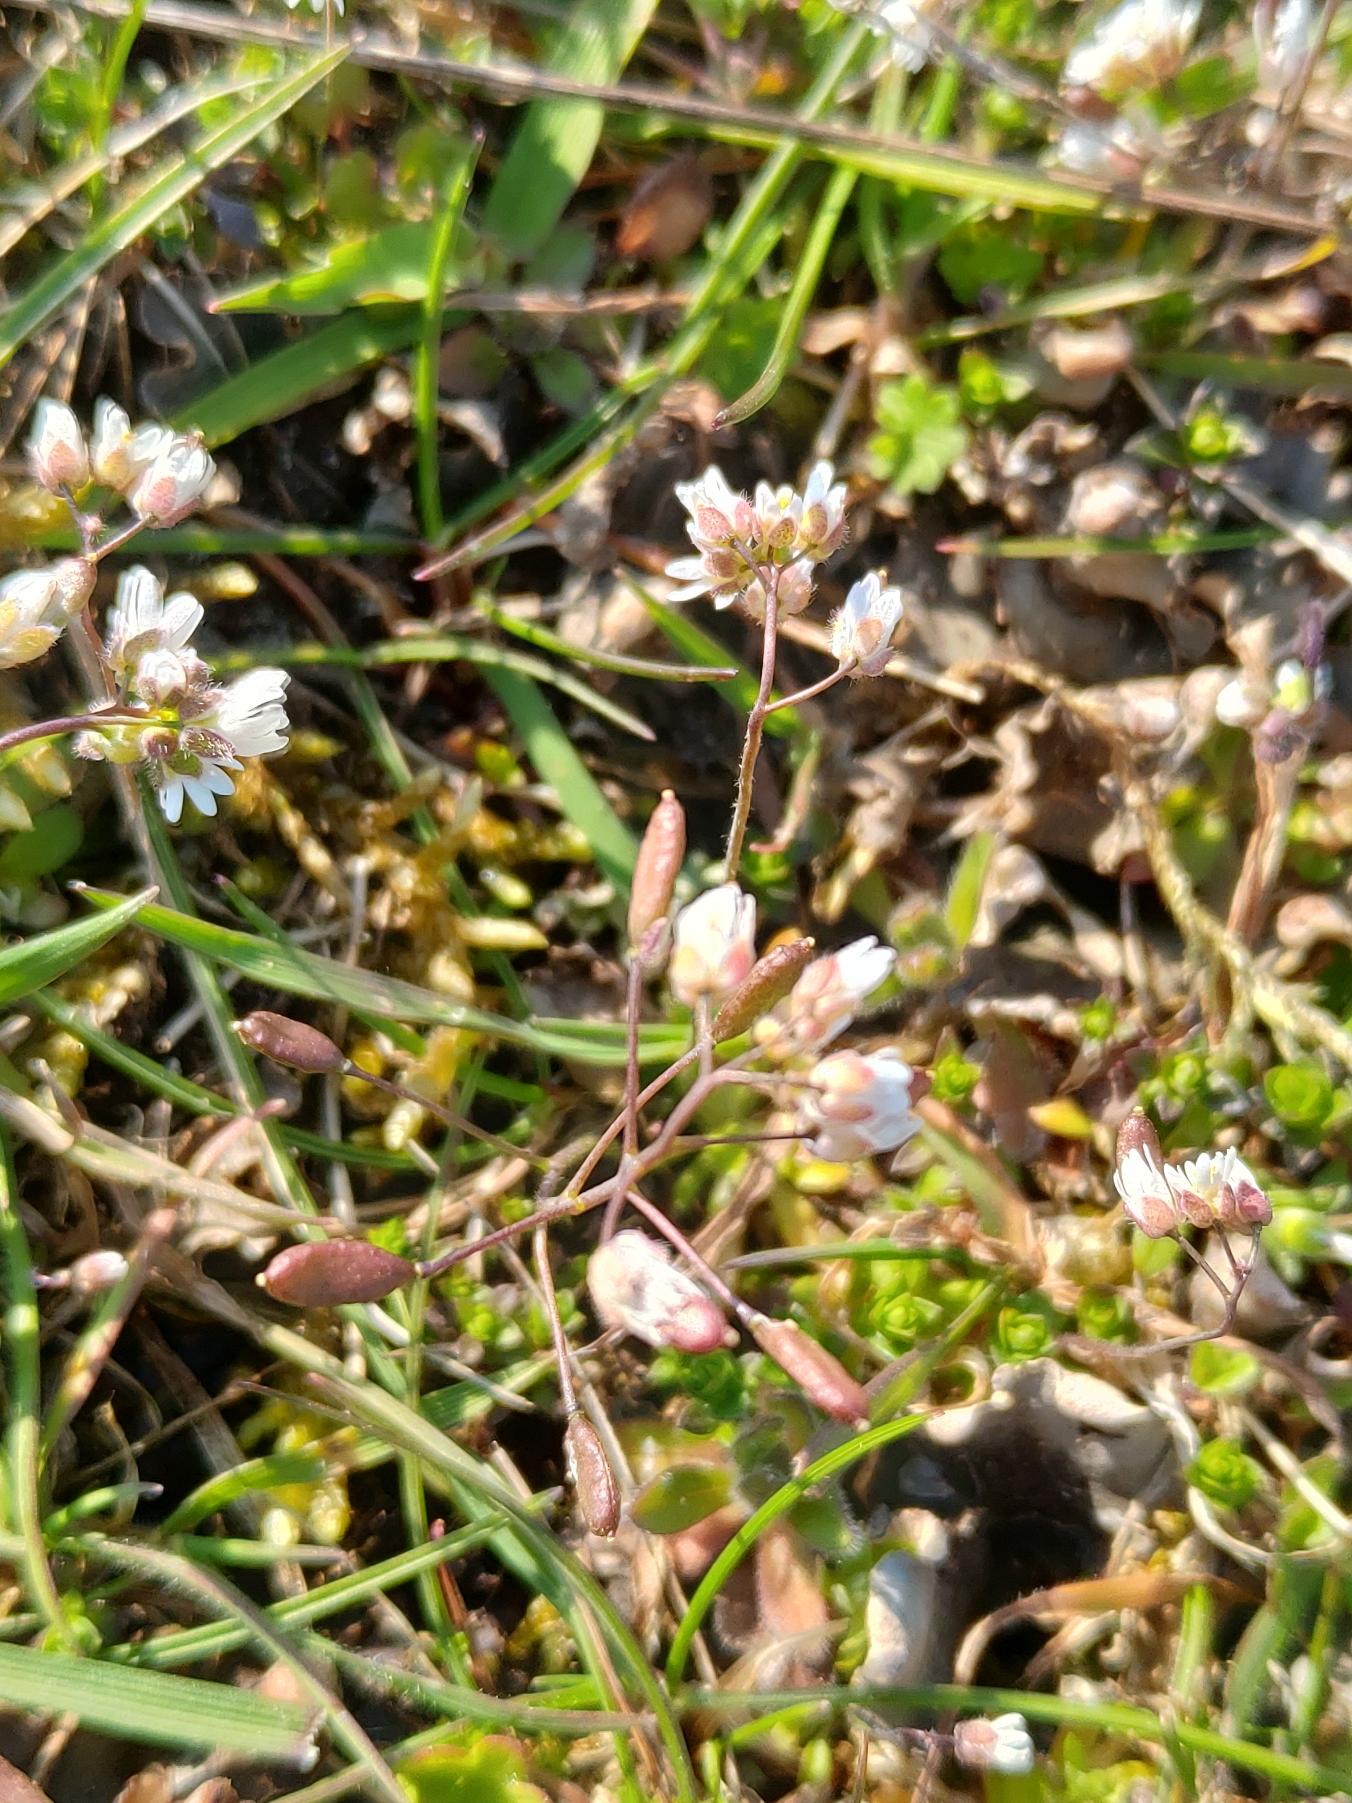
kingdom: Plantae
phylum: Tracheophyta
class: Magnoliopsida
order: Brassicales
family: Brassicaceae
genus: Draba
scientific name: Draba verna
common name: Vår-gæslingeblomst
